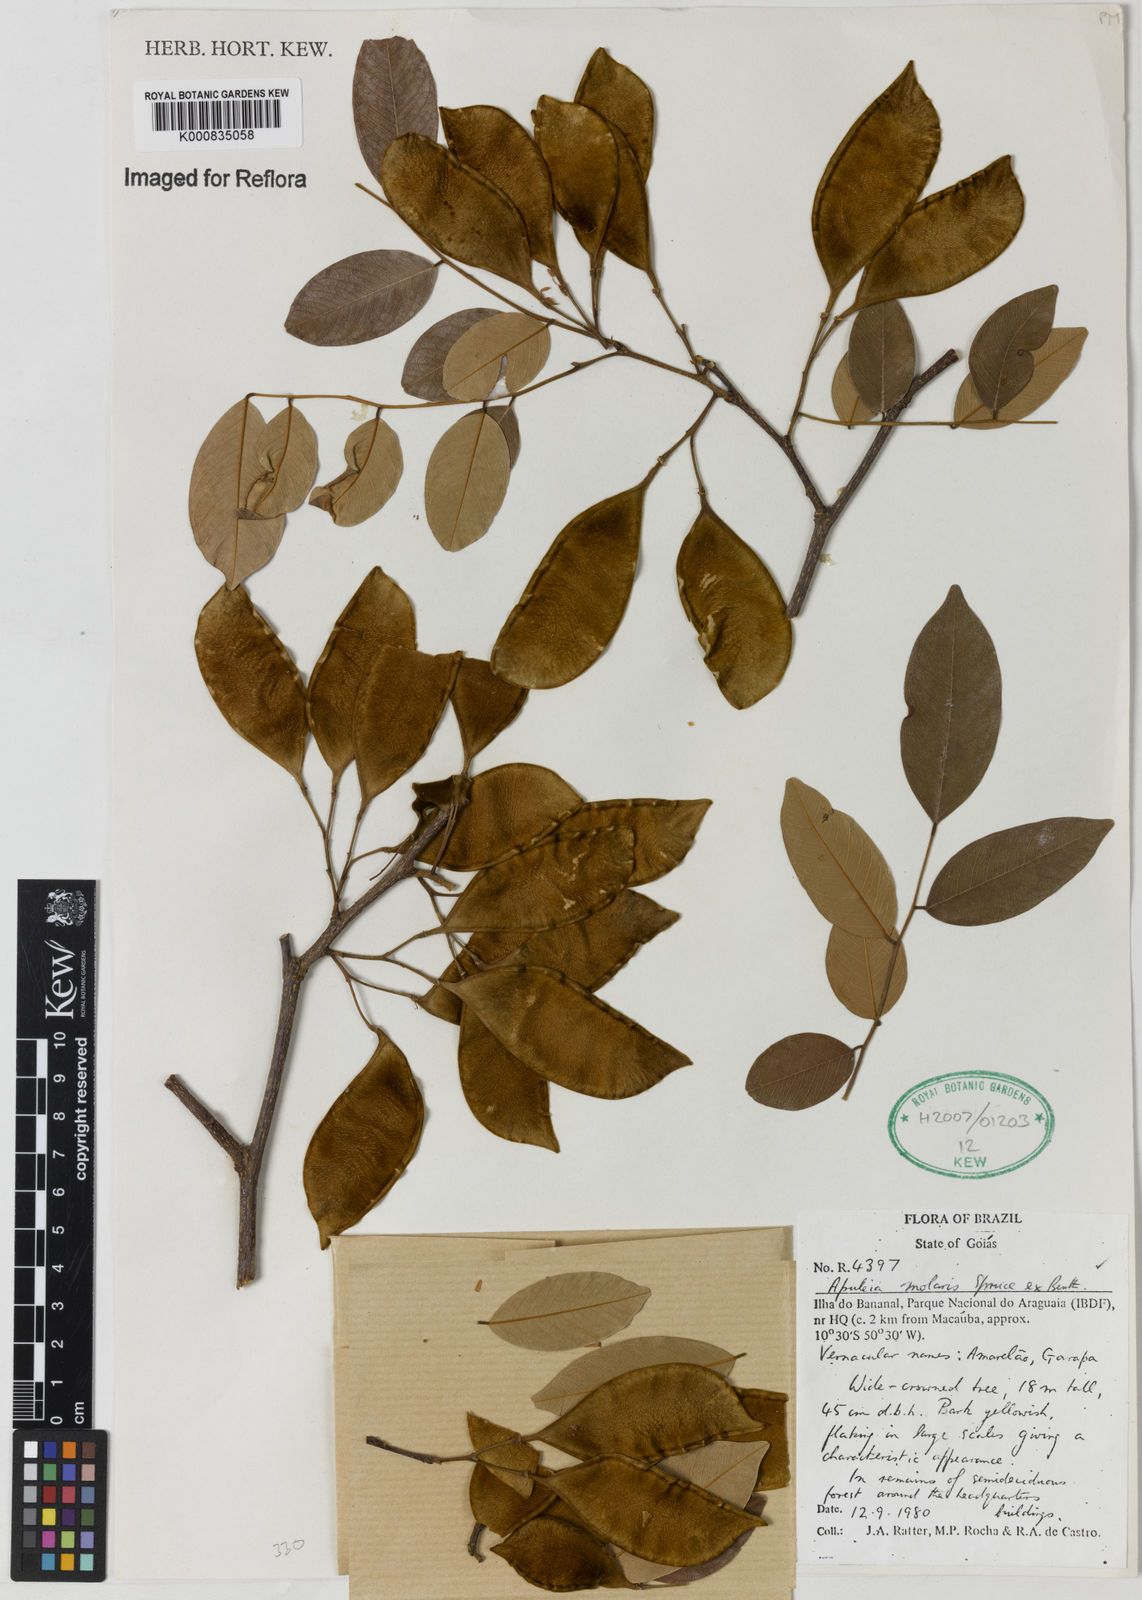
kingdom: Plantae
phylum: Tracheophyta
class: Magnoliopsida
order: Fabales
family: Fabaceae
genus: Apuleia
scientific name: Apuleia leiocarpa
